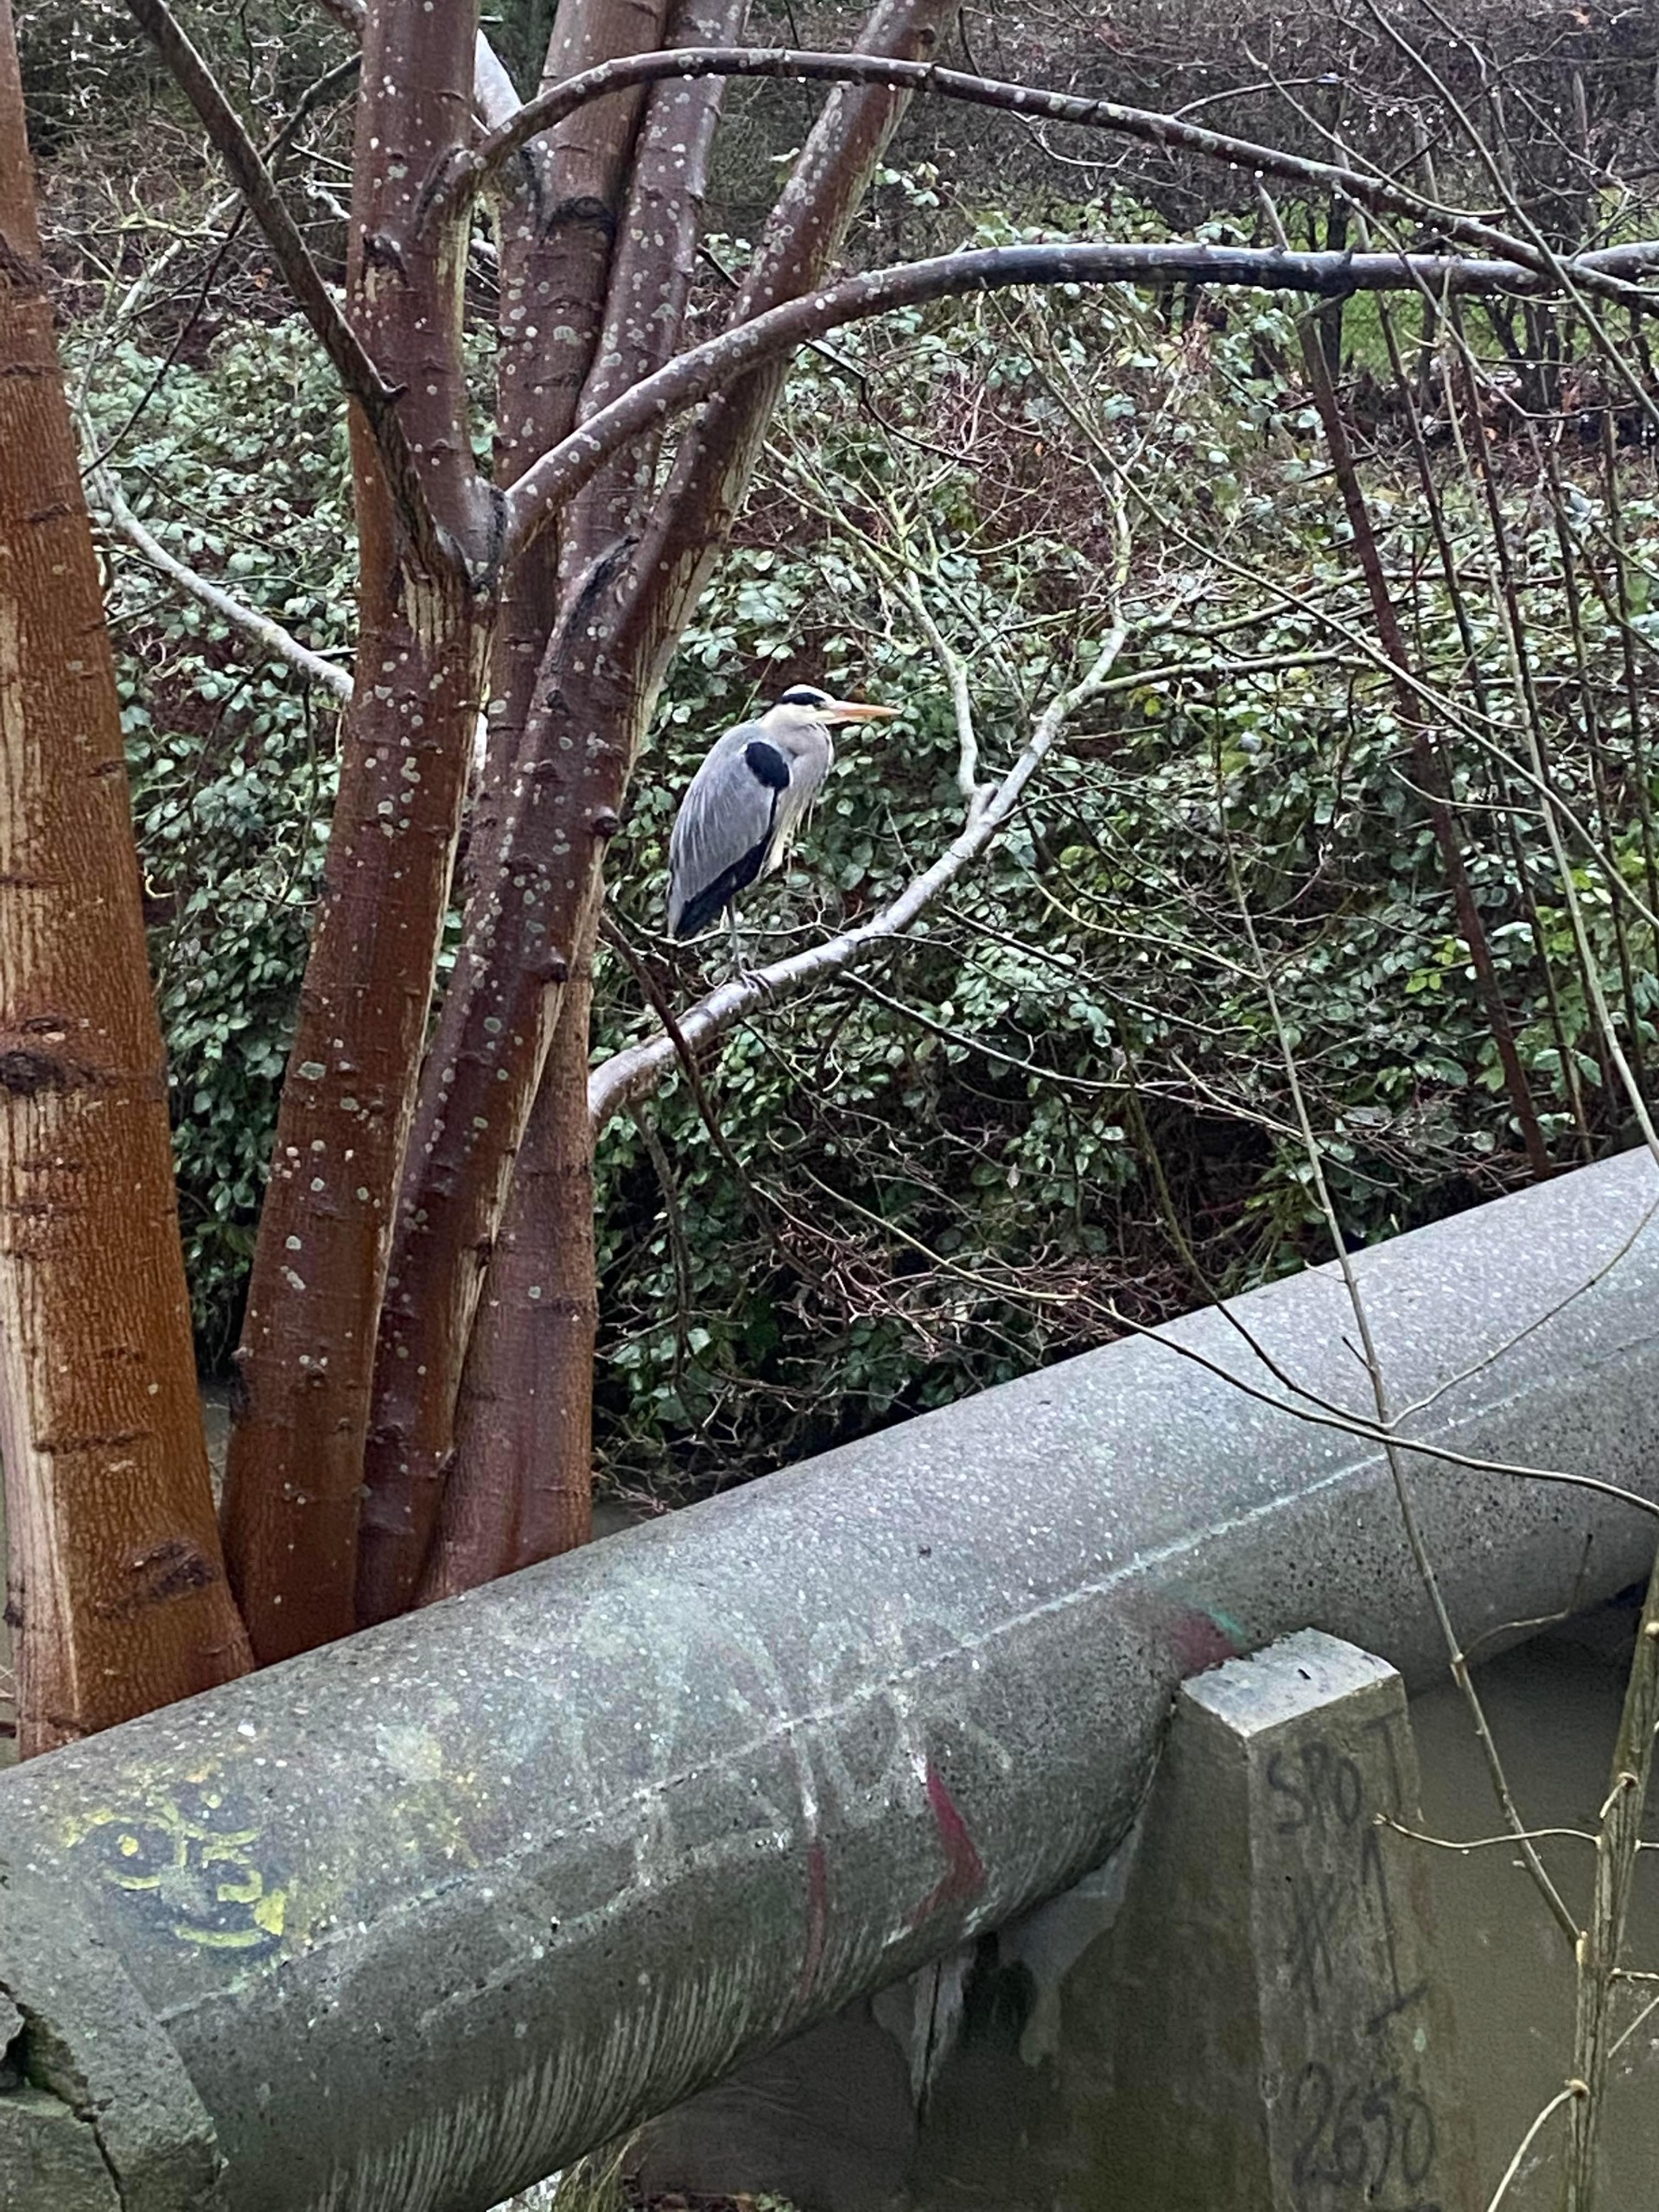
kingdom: Animalia
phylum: Chordata
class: Aves
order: Pelecaniformes
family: Ardeidae
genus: Ardea
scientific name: Ardea cinerea
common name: Fiskehejre
